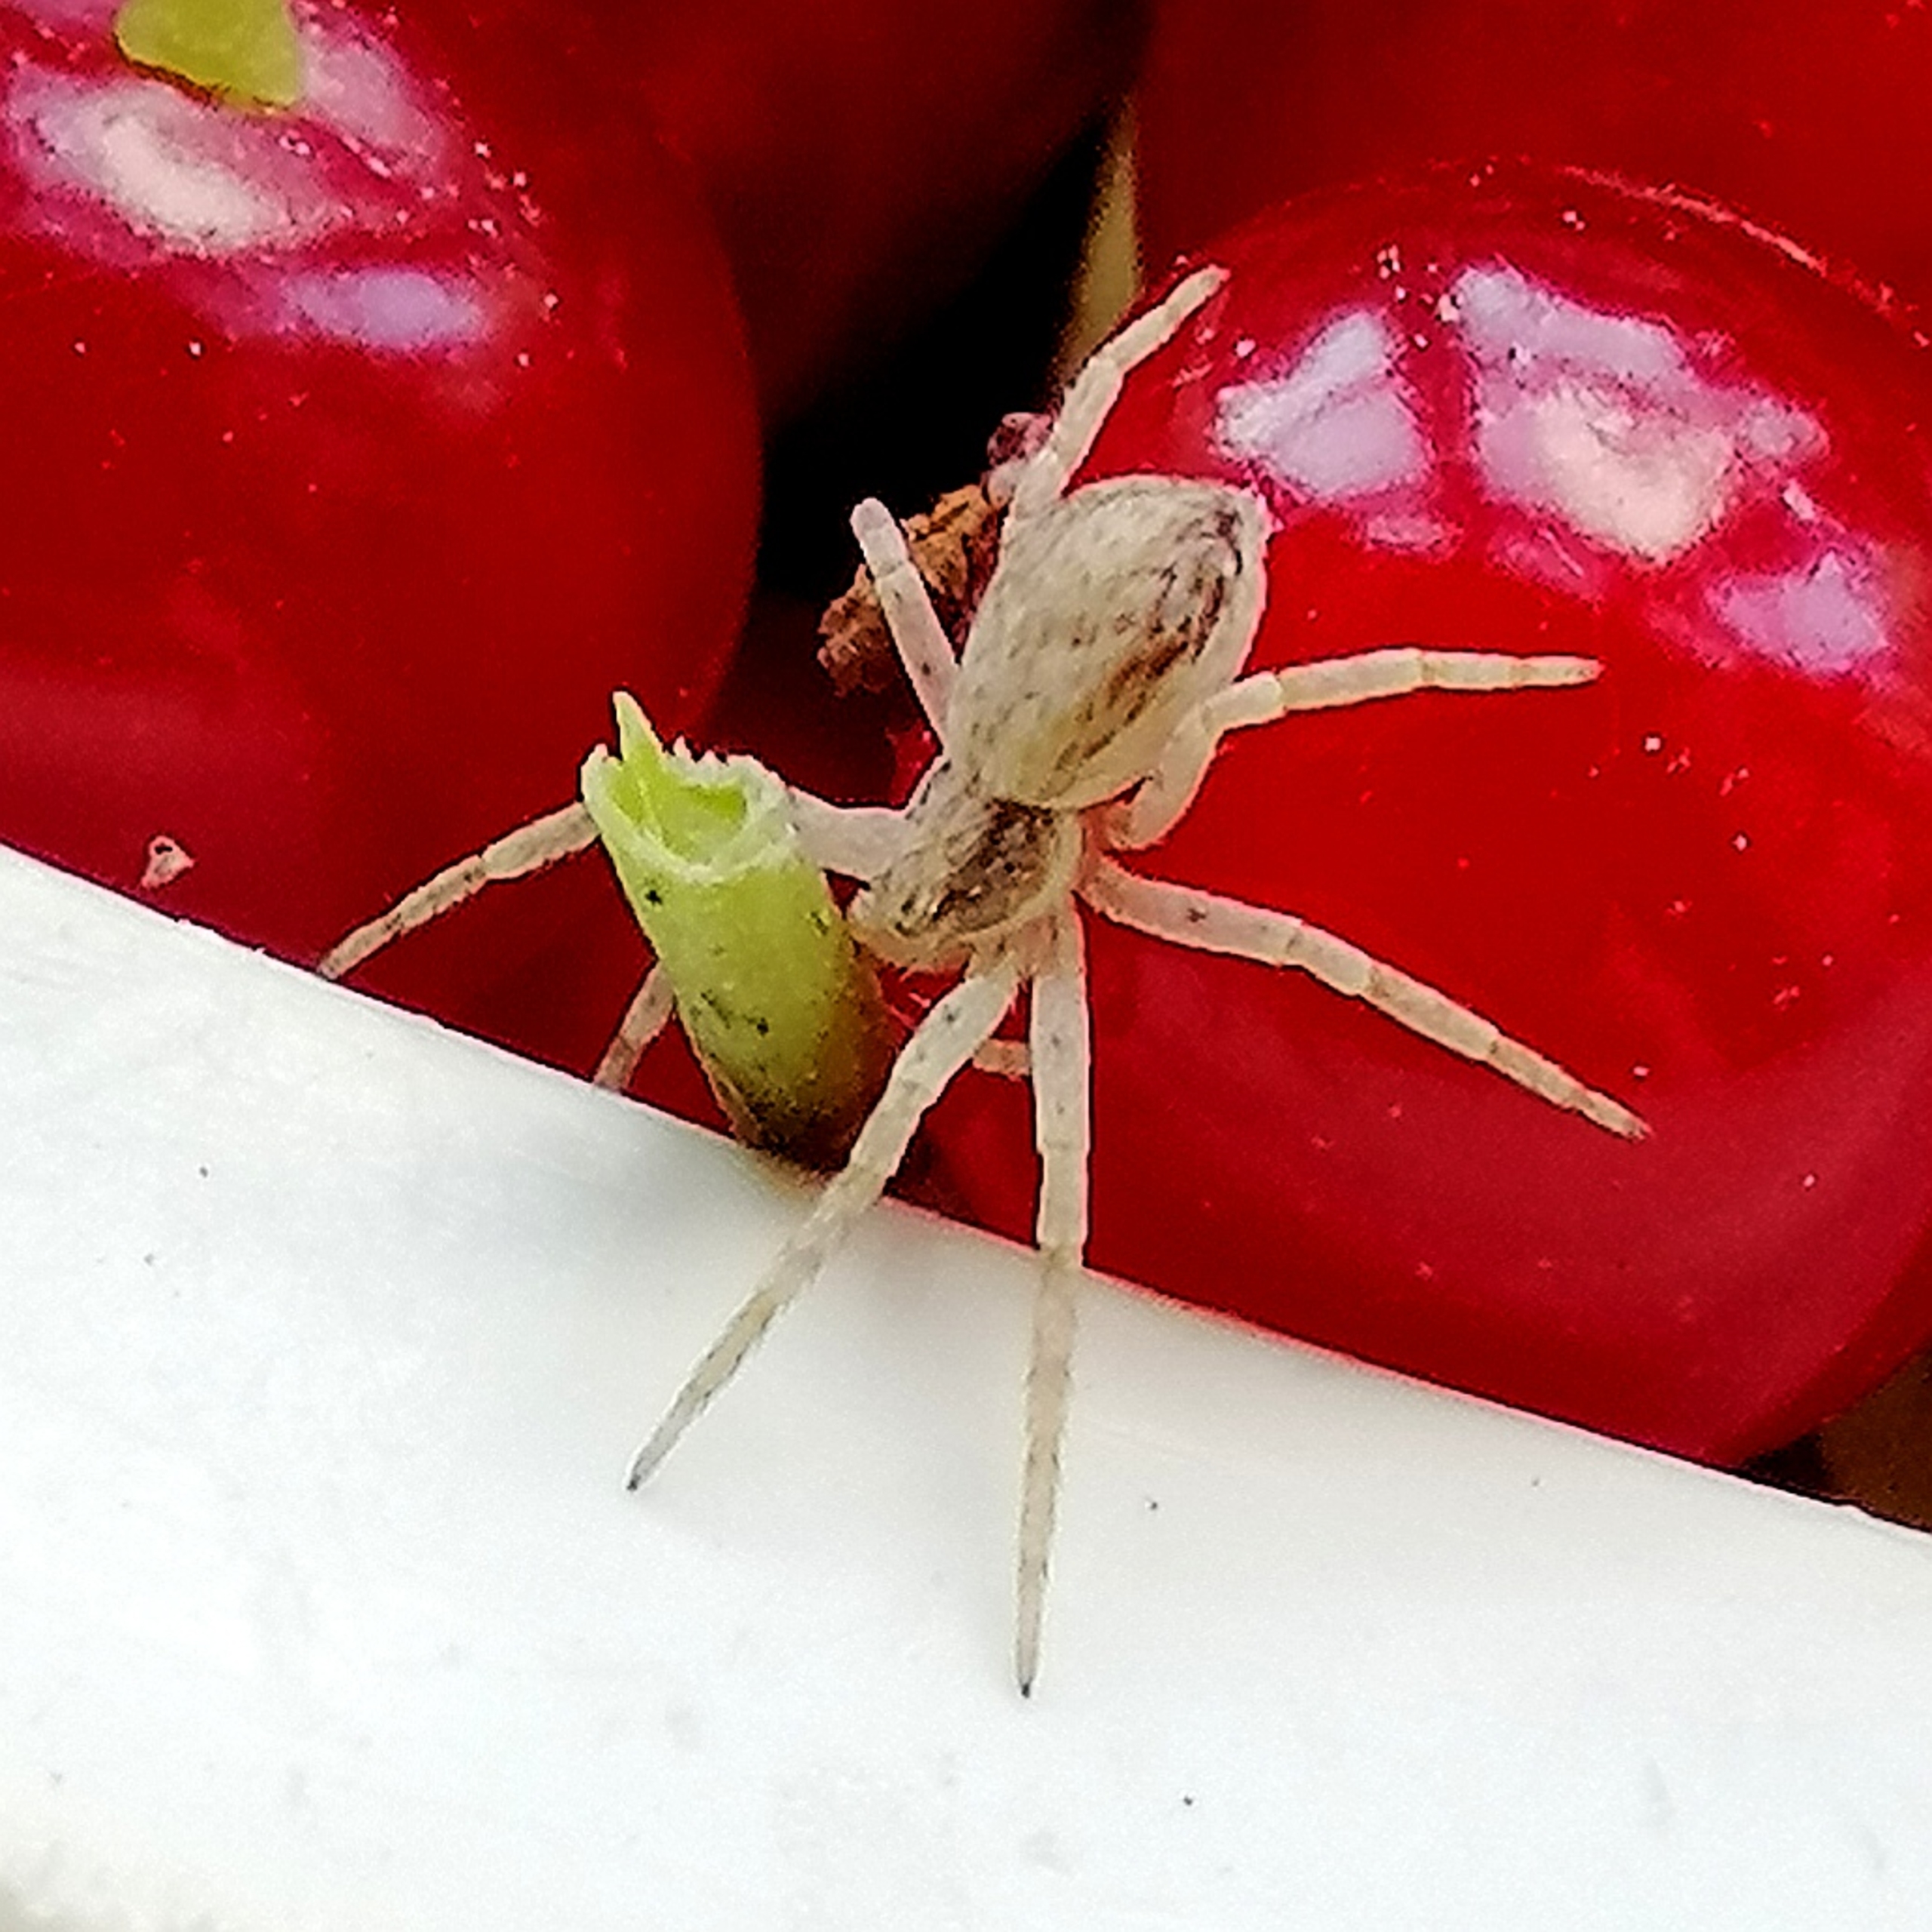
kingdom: Animalia
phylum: Arthropoda
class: Arachnida
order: Araneae
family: Philodromidae
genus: Philodromus
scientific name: Philodromus dispar
